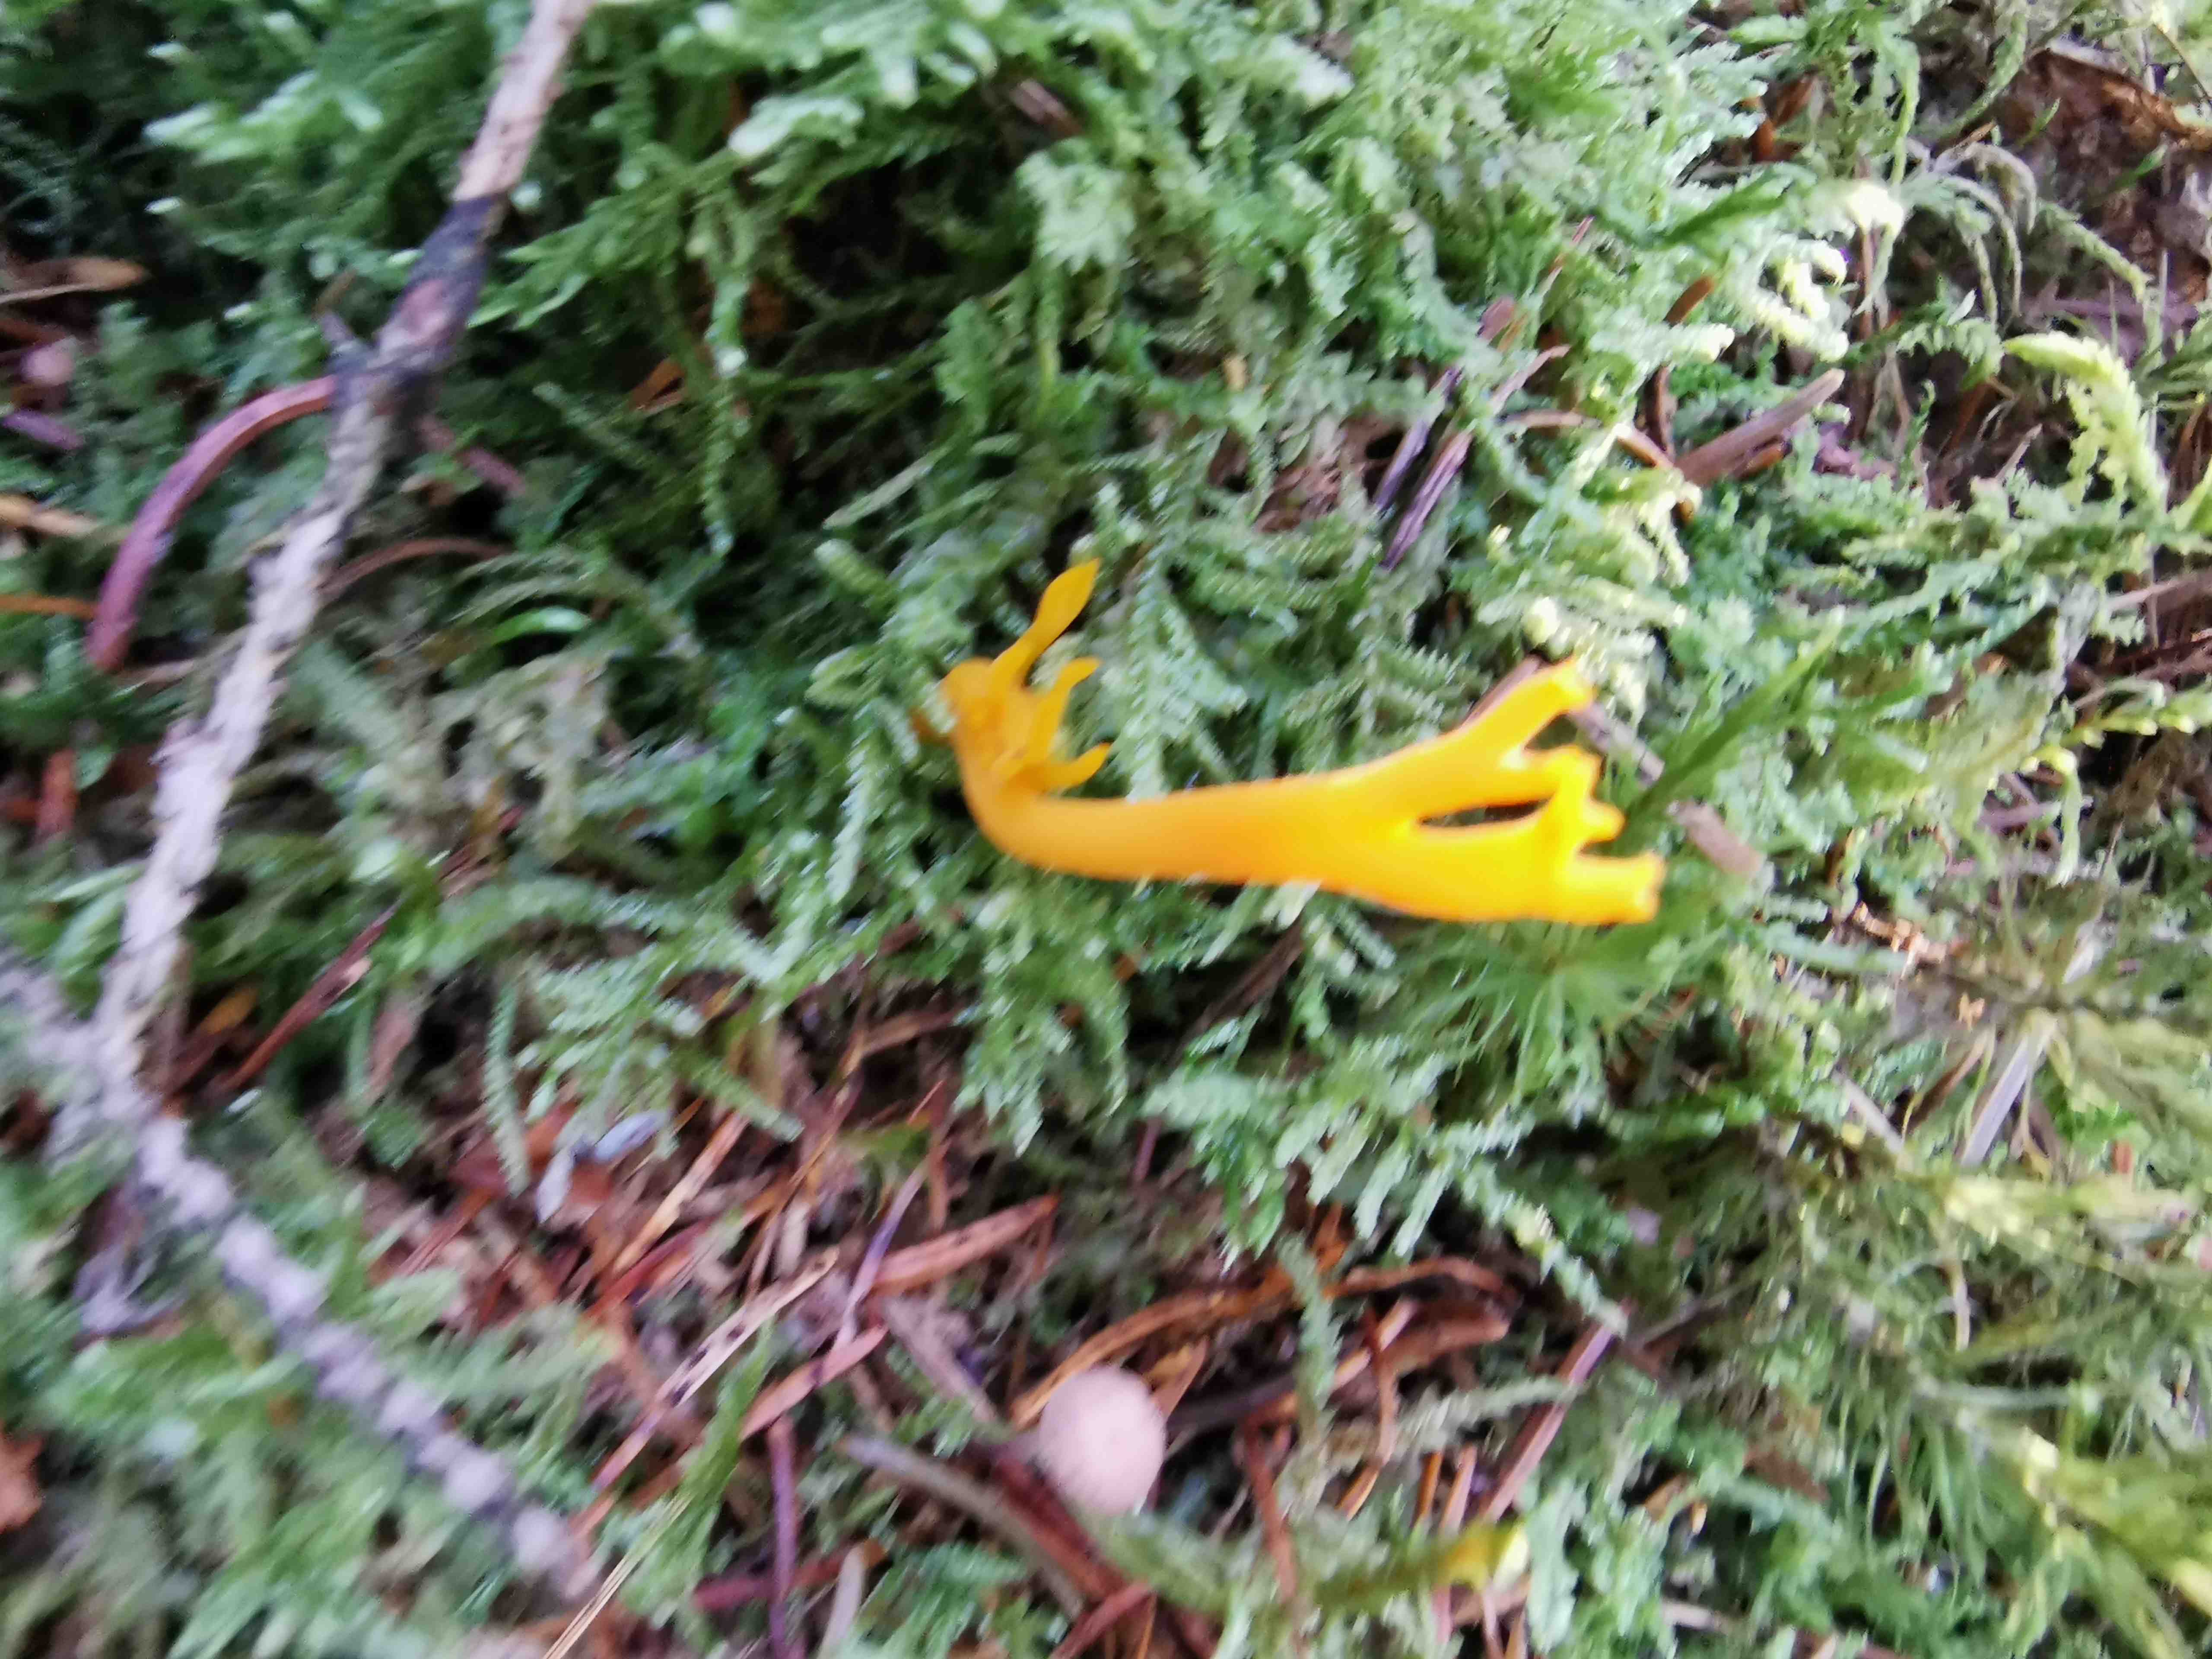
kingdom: Fungi
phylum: Basidiomycota
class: Dacrymycetes
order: Dacrymycetales
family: Dacrymycetaceae
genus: Calocera
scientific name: Calocera viscosa
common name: almindelig guldgaffel
